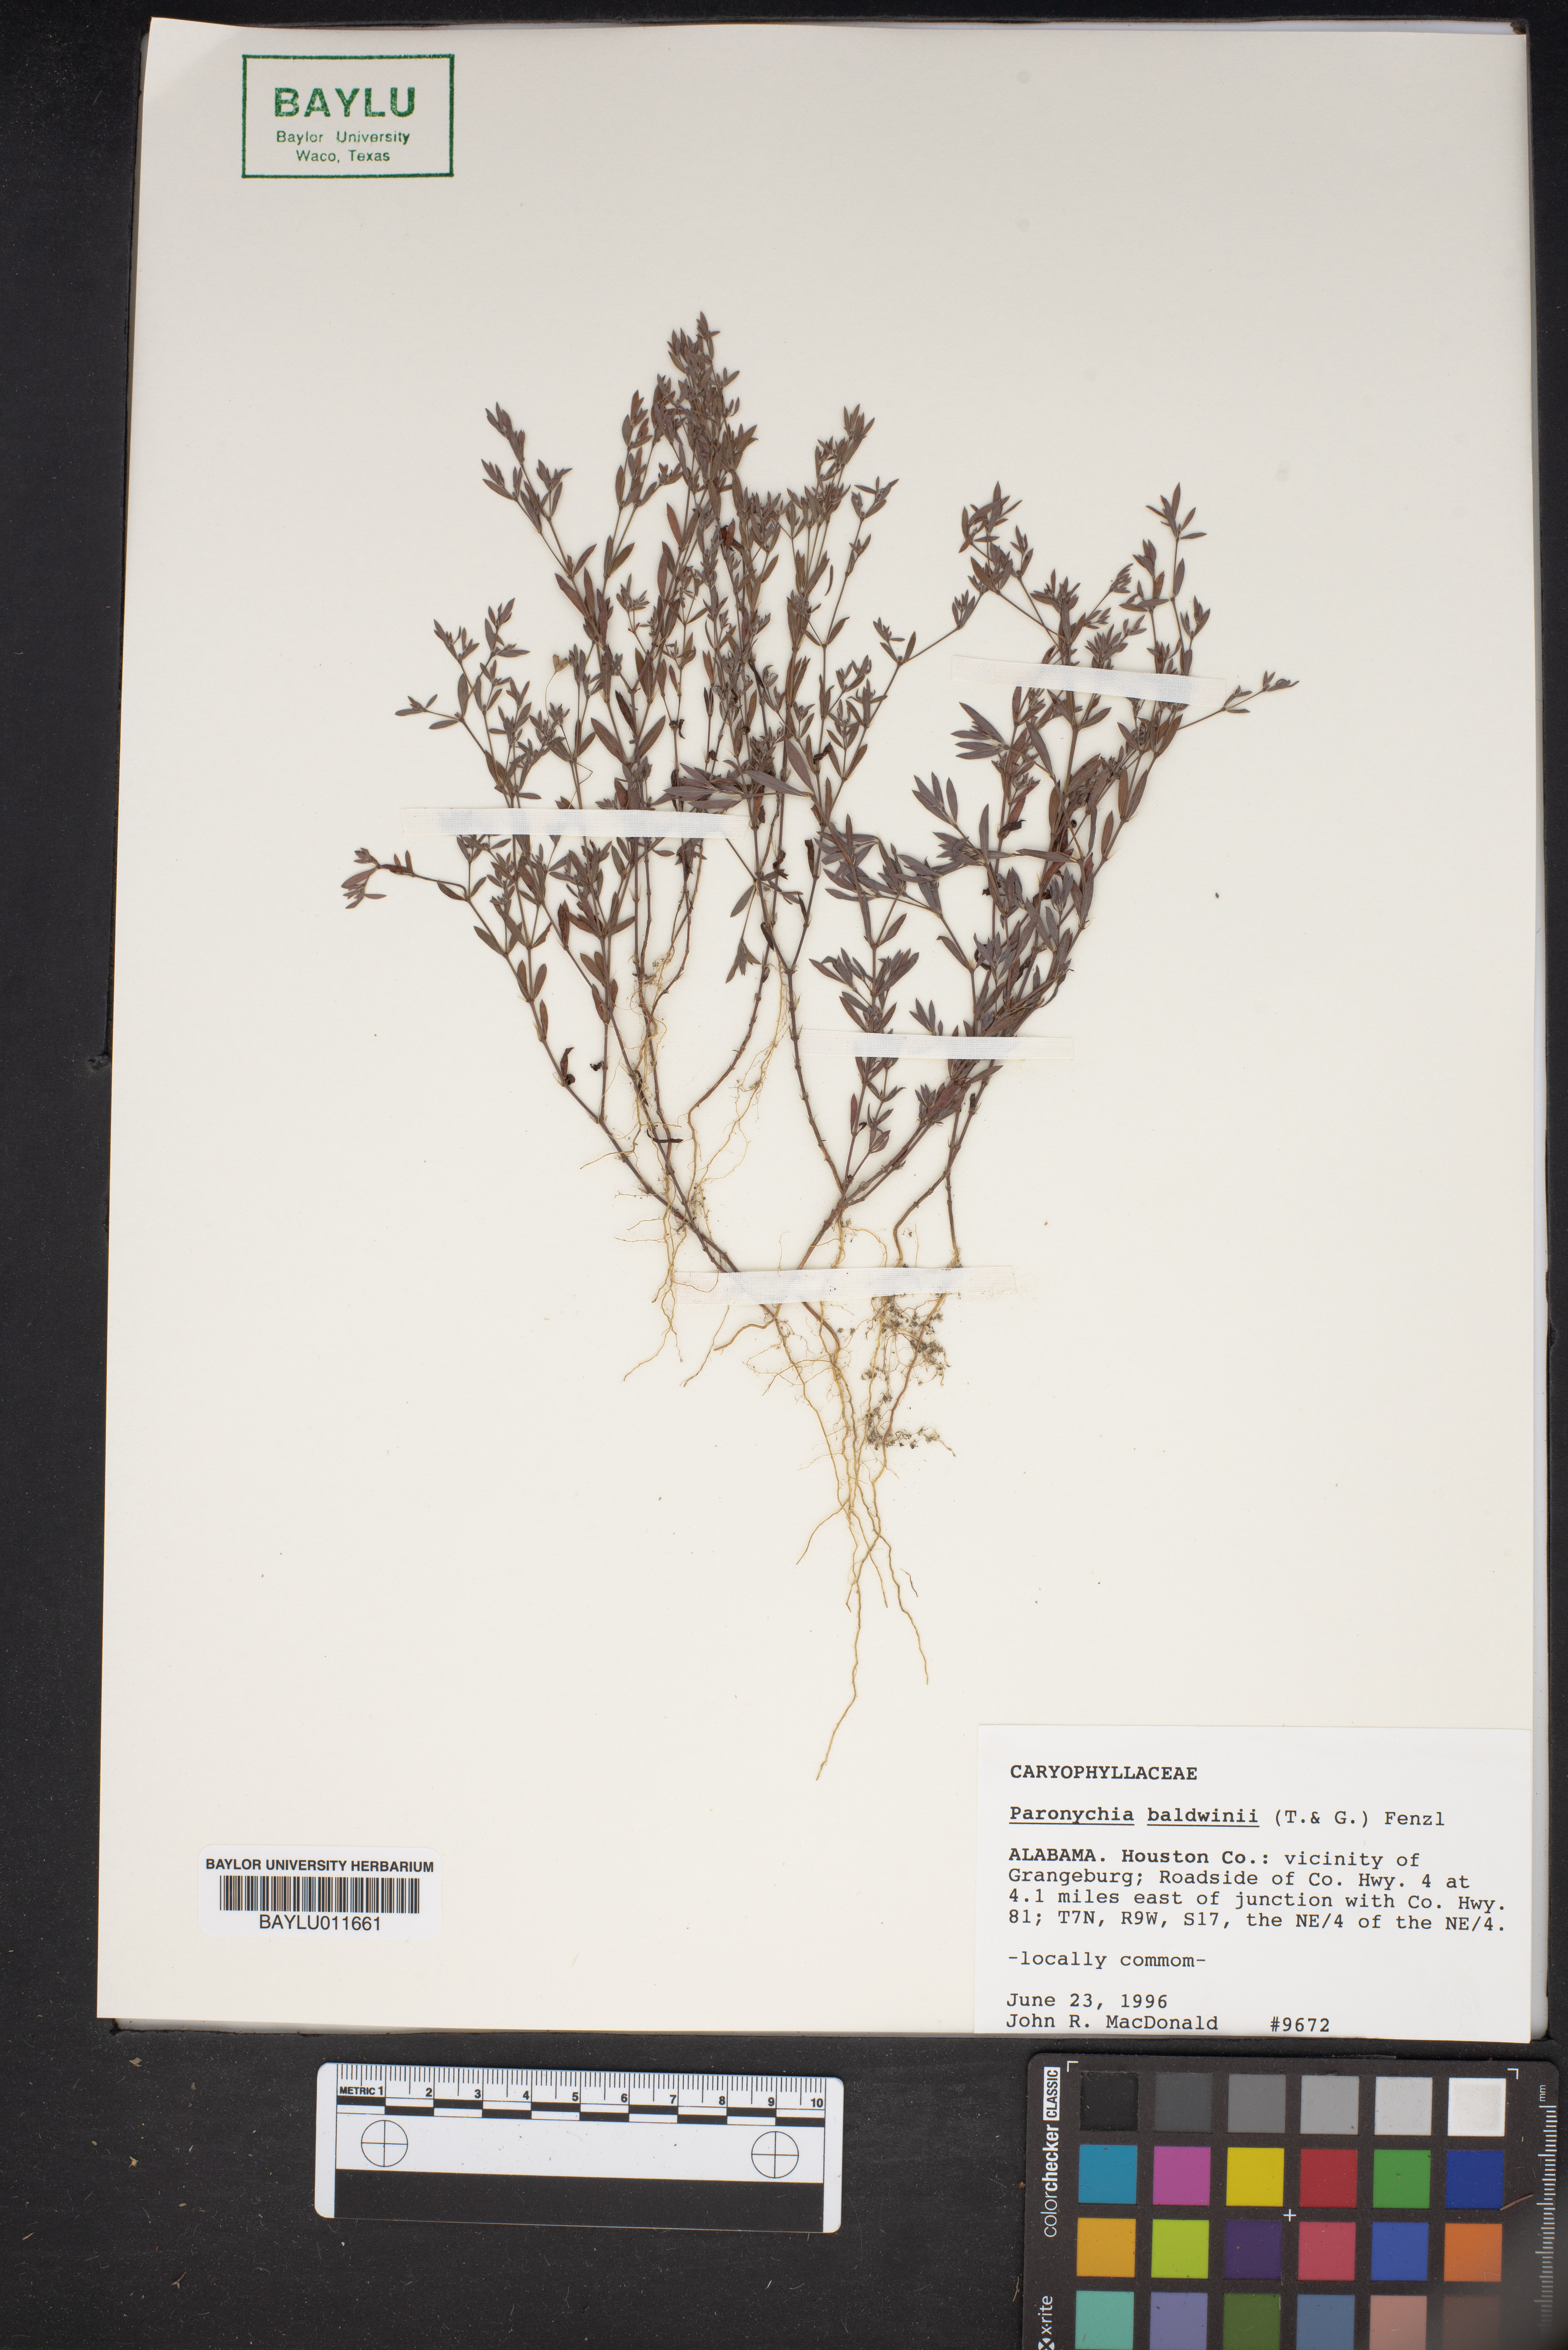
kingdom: Plantae
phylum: Tracheophyta
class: Magnoliopsida
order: Caryophyllales
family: Caryophyllaceae
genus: Paronychia
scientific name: Paronychia baldwinii
